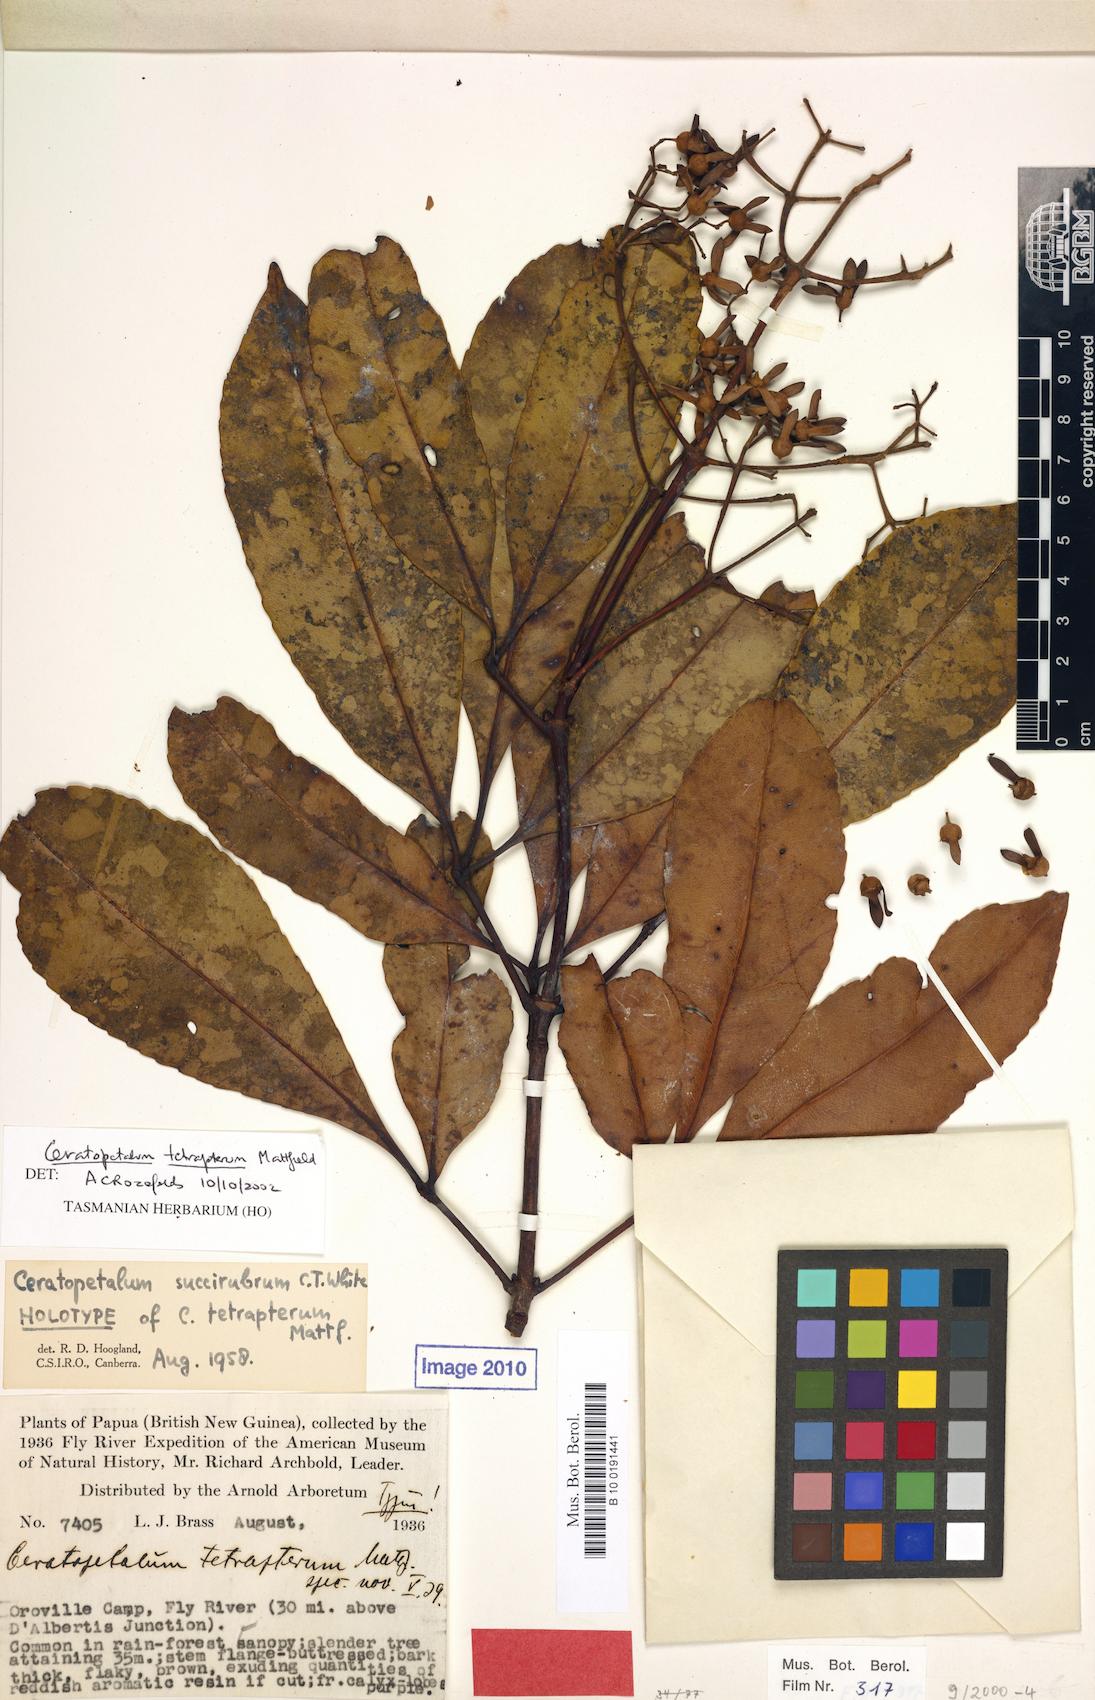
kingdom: Plantae
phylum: Tracheophyta
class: Magnoliopsida
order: Oxalidales
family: Cunoniaceae
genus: Ceratopetalum
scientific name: Ceratopetalum tetrapterum
